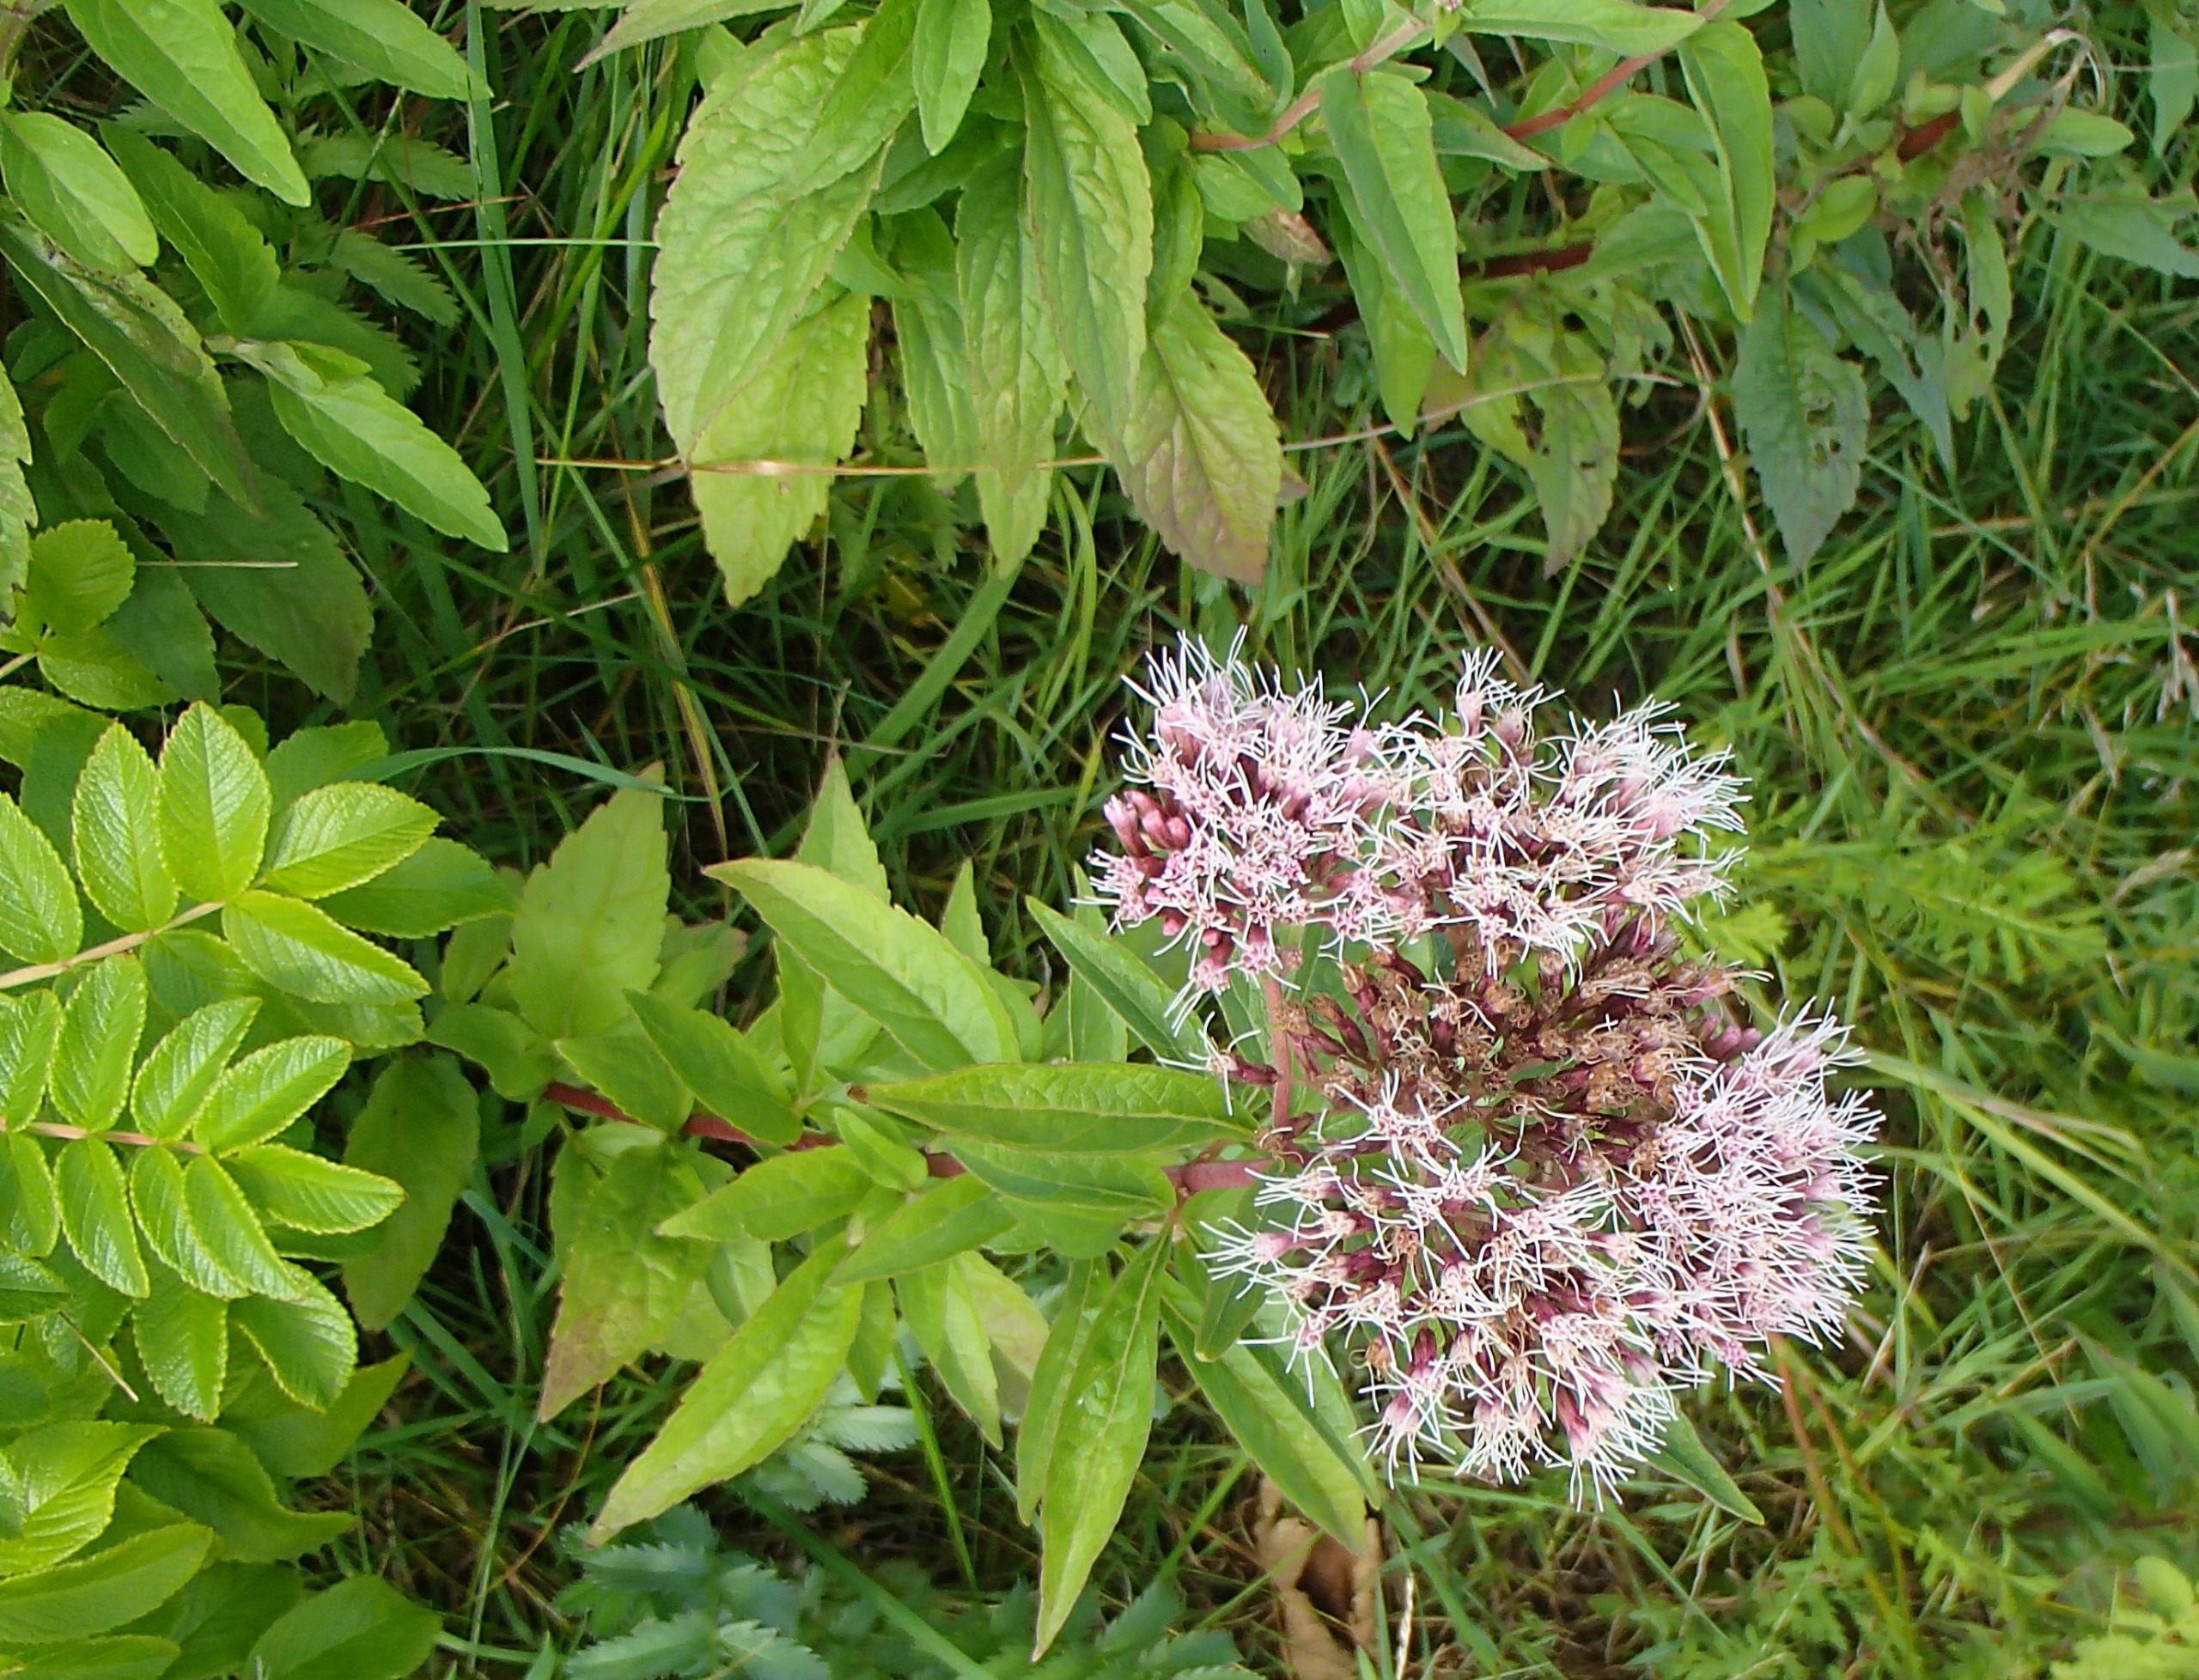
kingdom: Plantae
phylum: Tracheophyta
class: Magnoliopsida
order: Asterales
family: Asteraceae
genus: Eupatorium
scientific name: Eupatorium cannabinum
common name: Hjortetrøst
